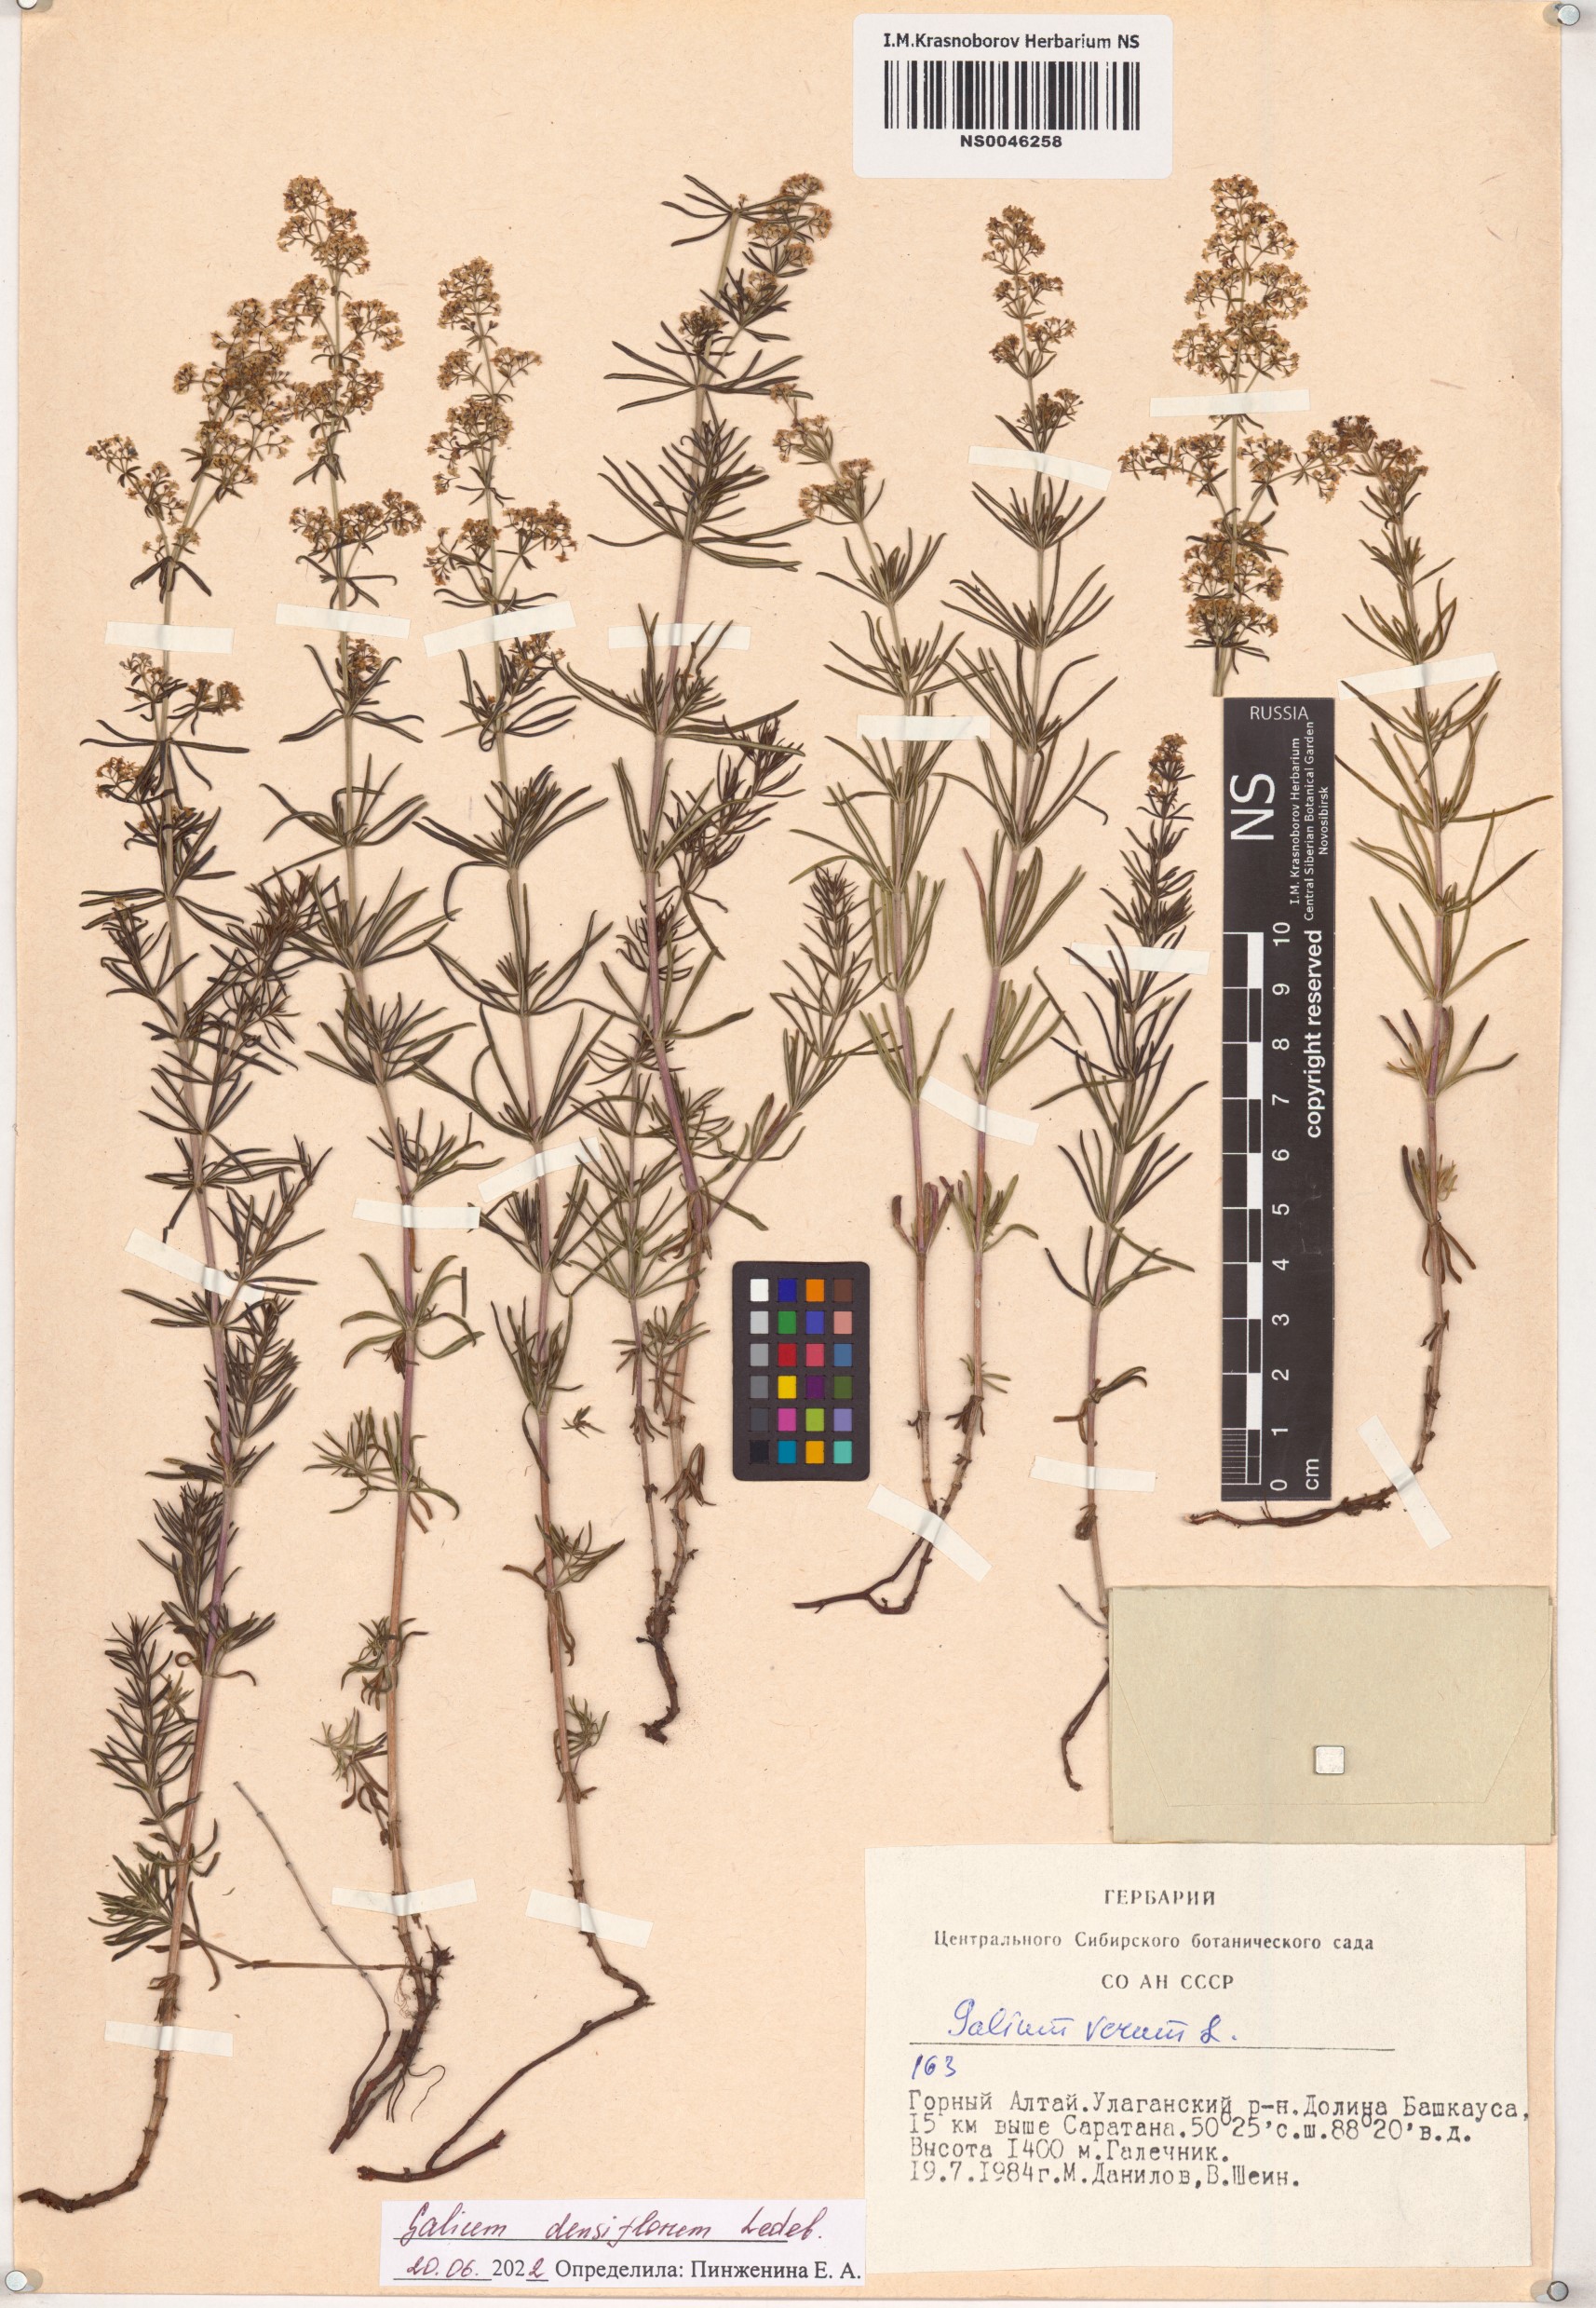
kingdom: Plantae
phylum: Tracheophyta
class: Magnoliopsida
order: Gentianales
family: Rubiaceae
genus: Galium
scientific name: Galium densiflorum
